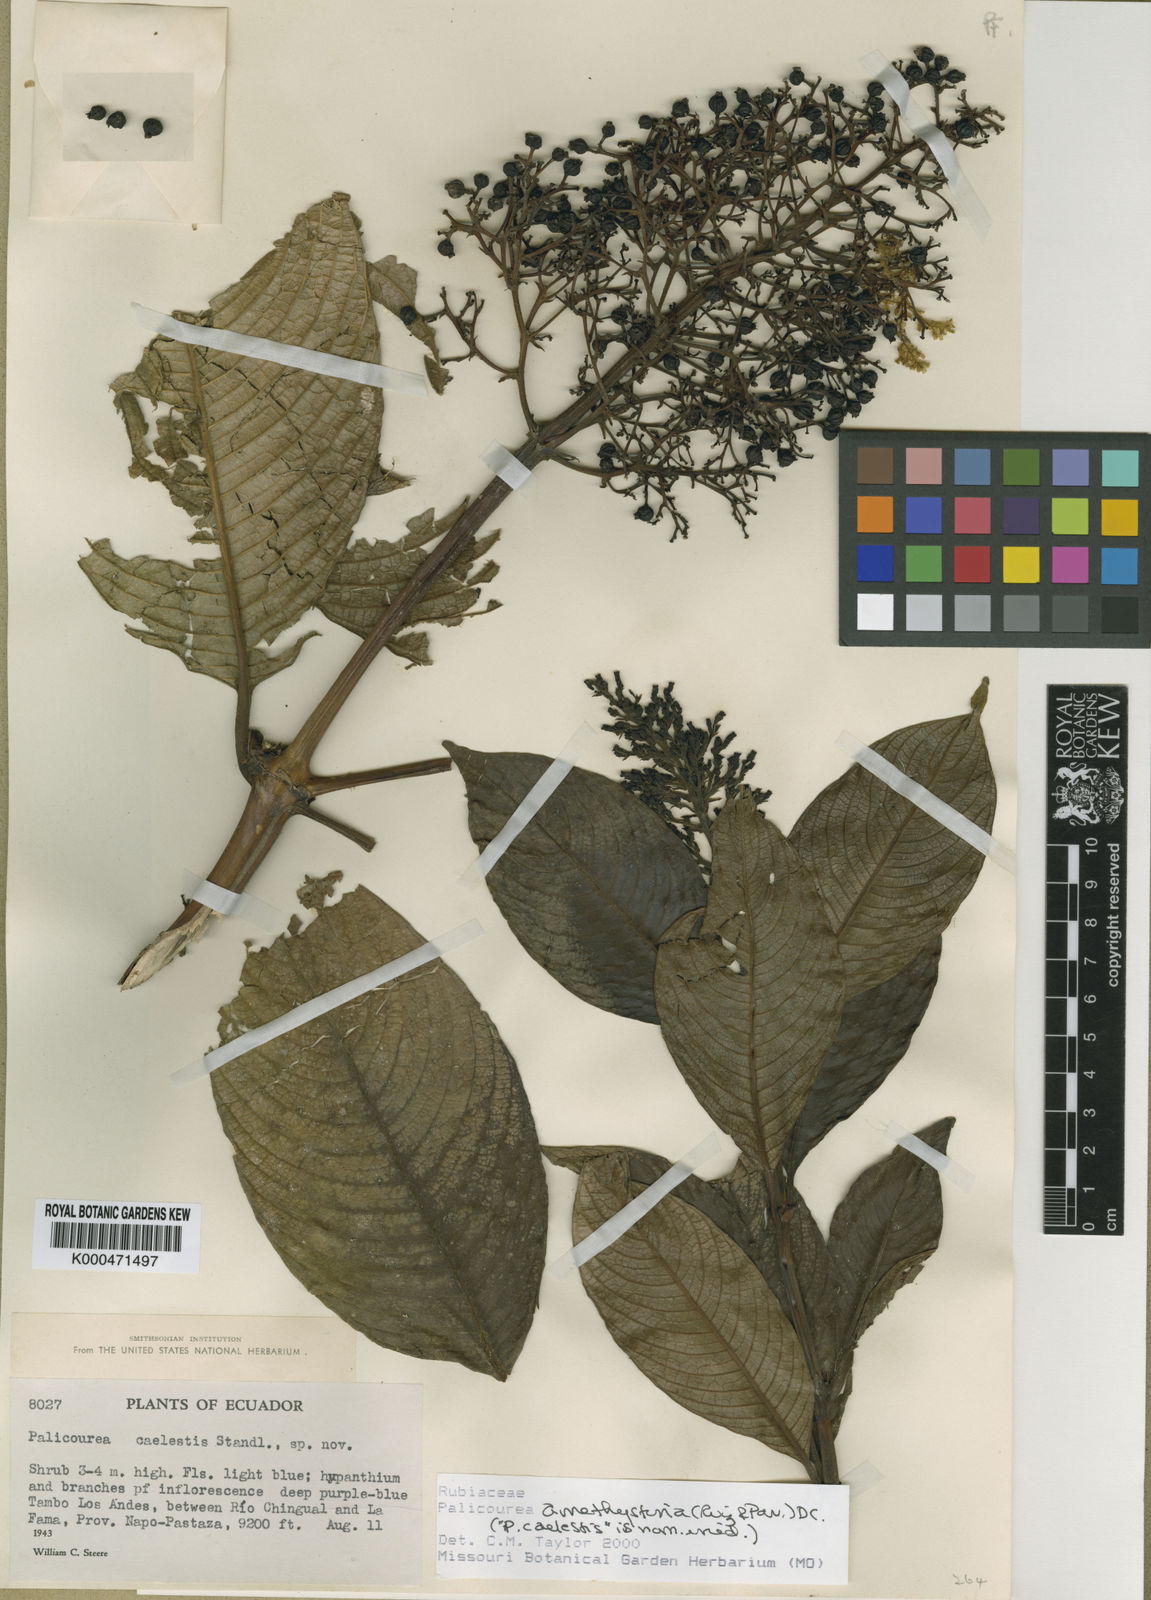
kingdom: Plantae
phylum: Tracheophyta
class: Magnoliopsida
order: Gentianales
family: Rubiaceae
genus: Palicourea
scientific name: Palicourea amethystina
